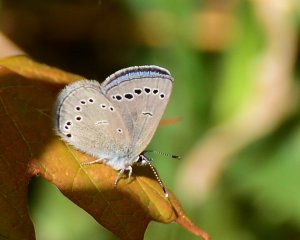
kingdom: Animalia
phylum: Arthropoda
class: Insecta
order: Lepidoptera
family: Lycaenidae
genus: Glaucopsyche
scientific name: Glaucopsyche lygdamus
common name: Silvery Blue
